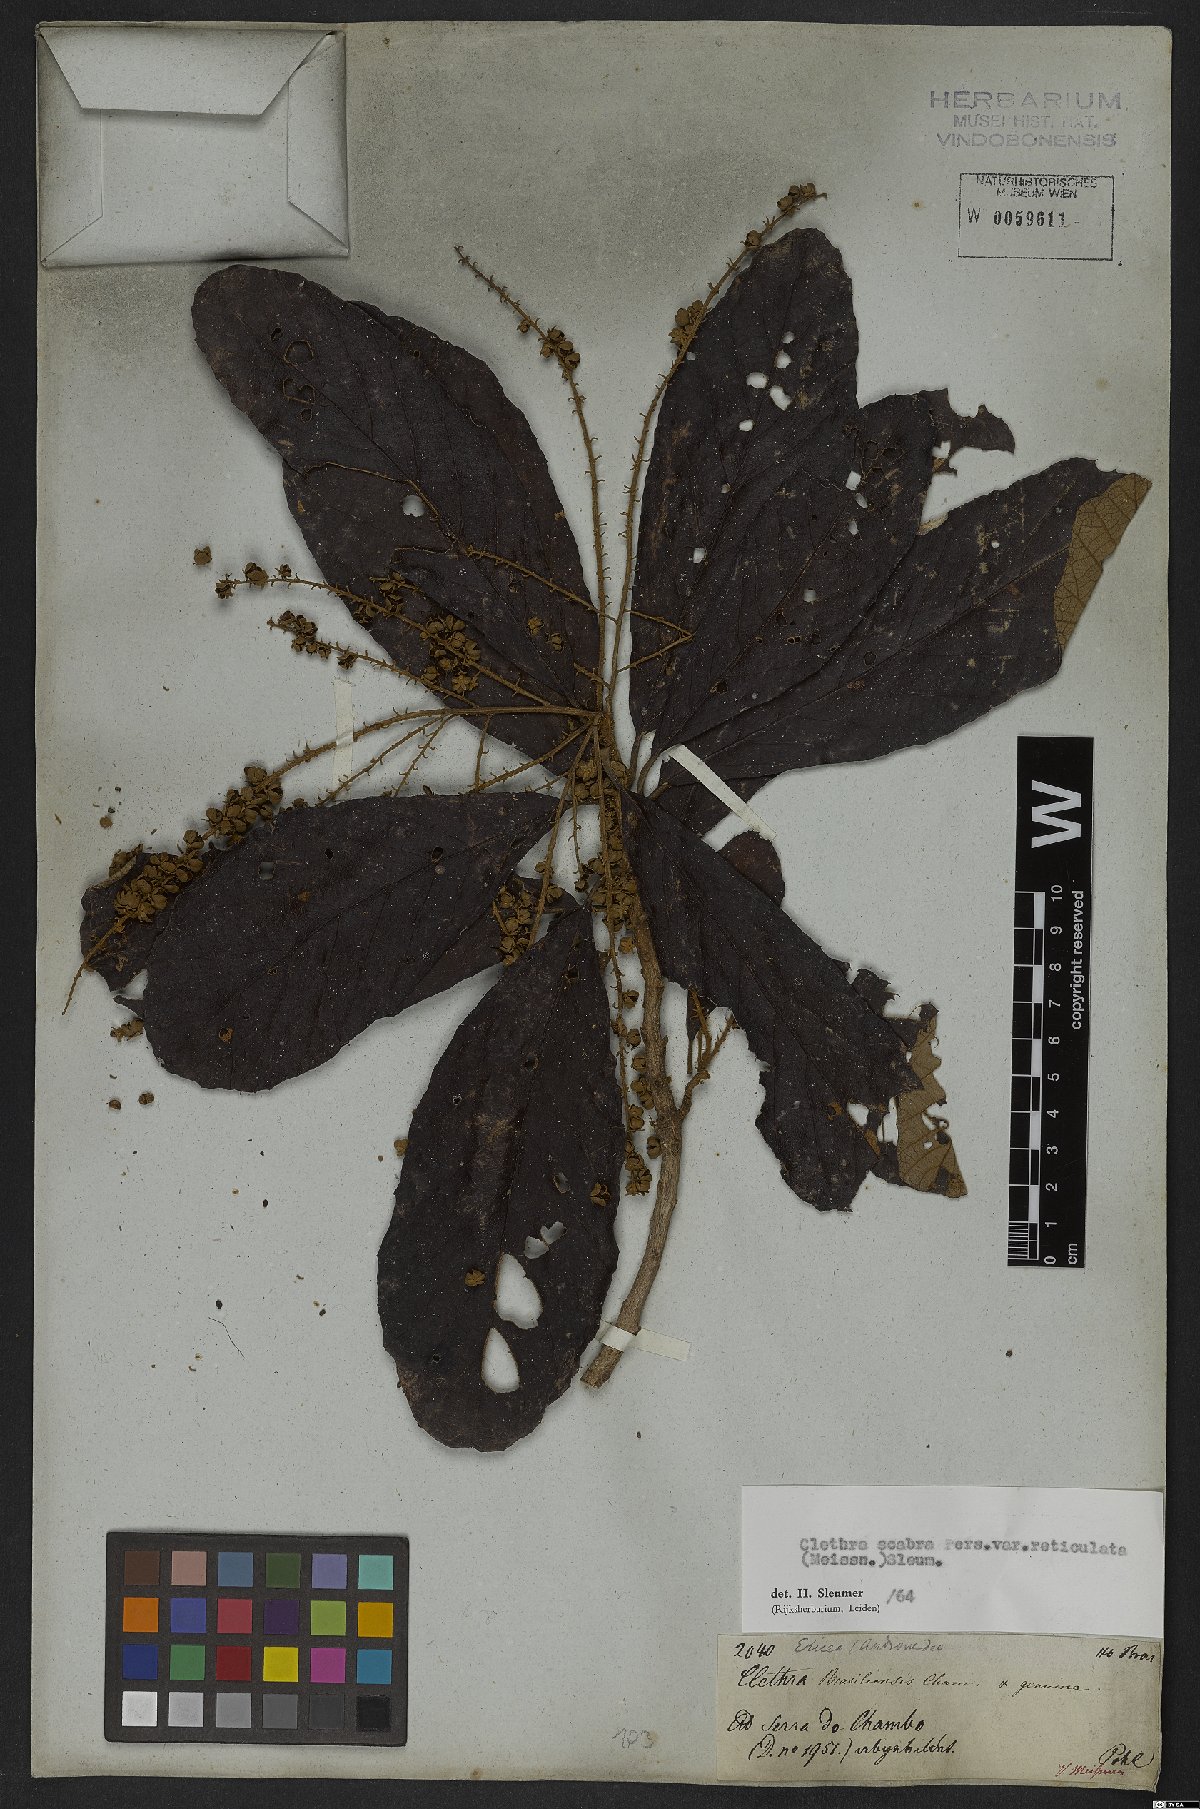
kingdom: Plantae
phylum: Tracheophyta
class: Magnoliopsida
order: Ericales
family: Clethraceae
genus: Clethra
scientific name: Clethra scabra
